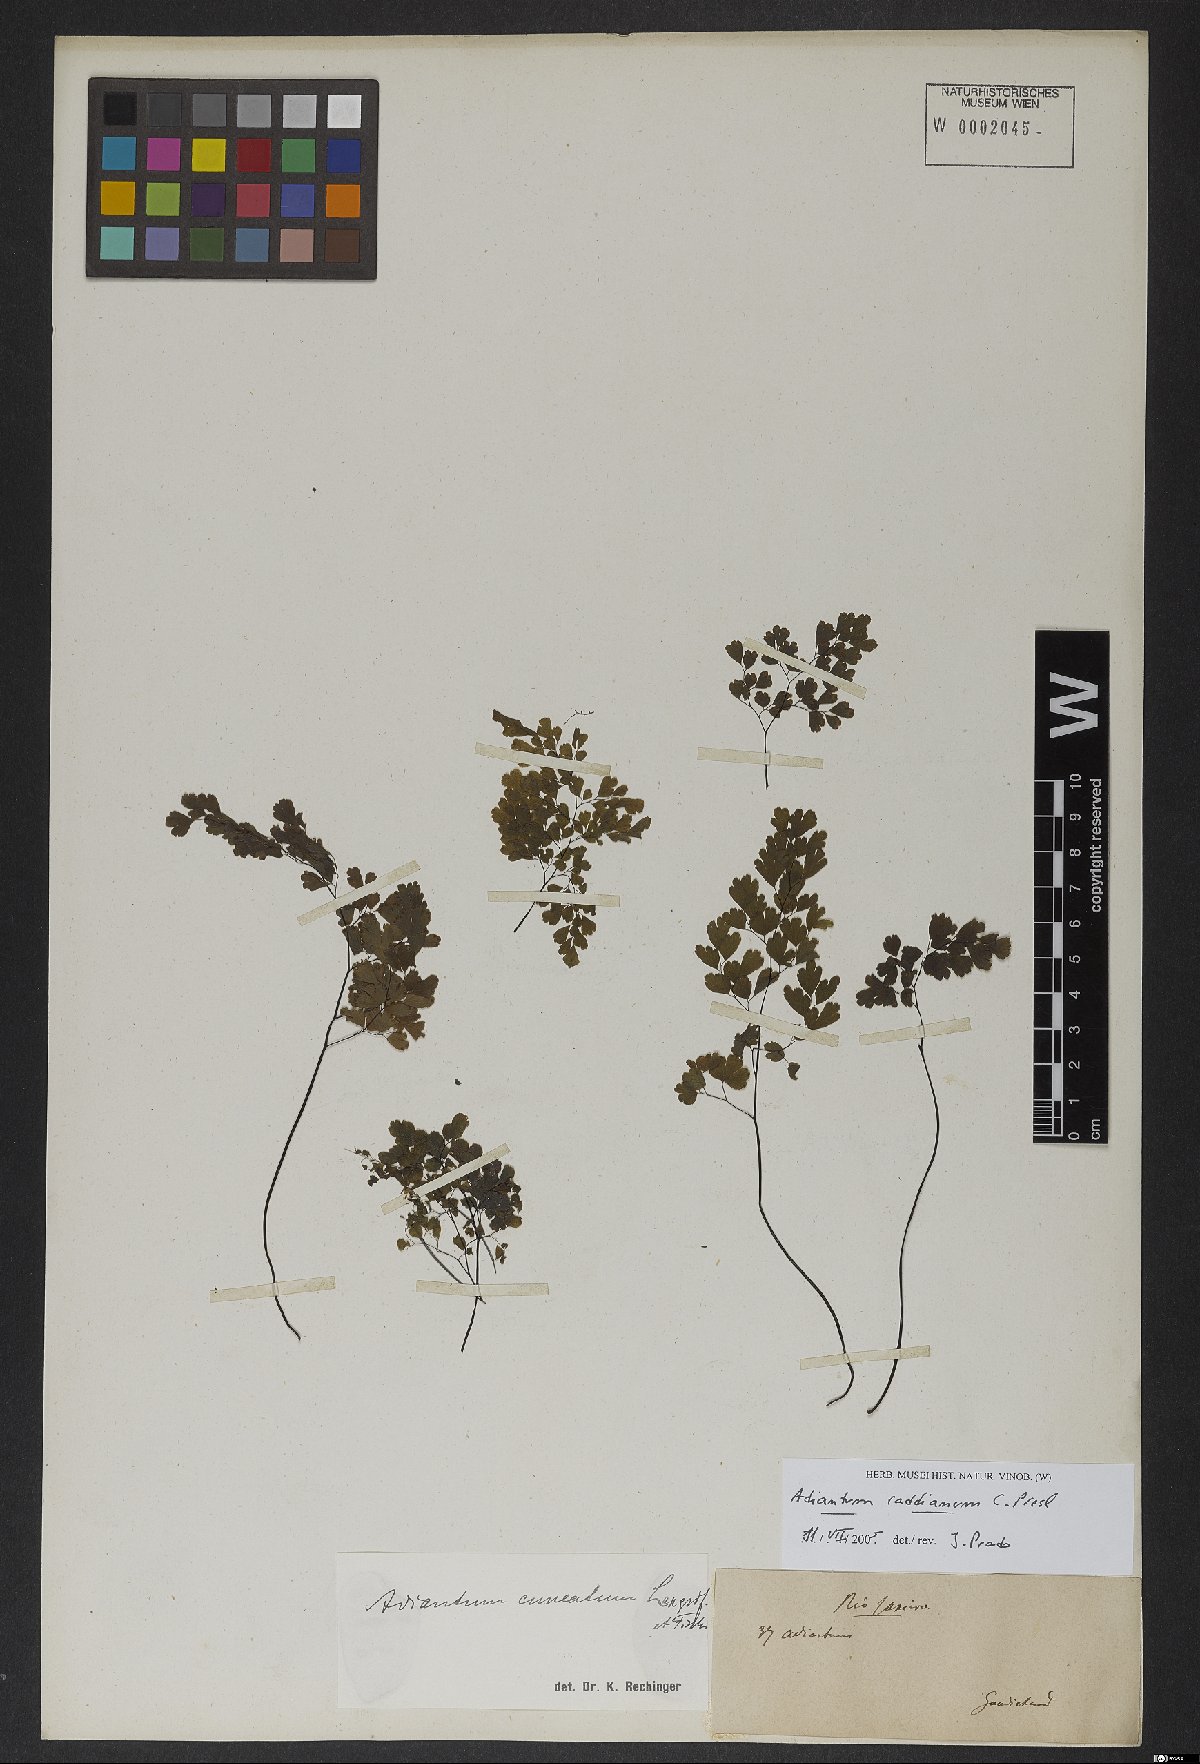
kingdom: Plantae
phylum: Tracheophyta
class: Polypodiopsida
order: Polypodiales
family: Pteridaceae
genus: Adiantum
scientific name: Adiantum raddianum
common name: Delta maidenhair fern
